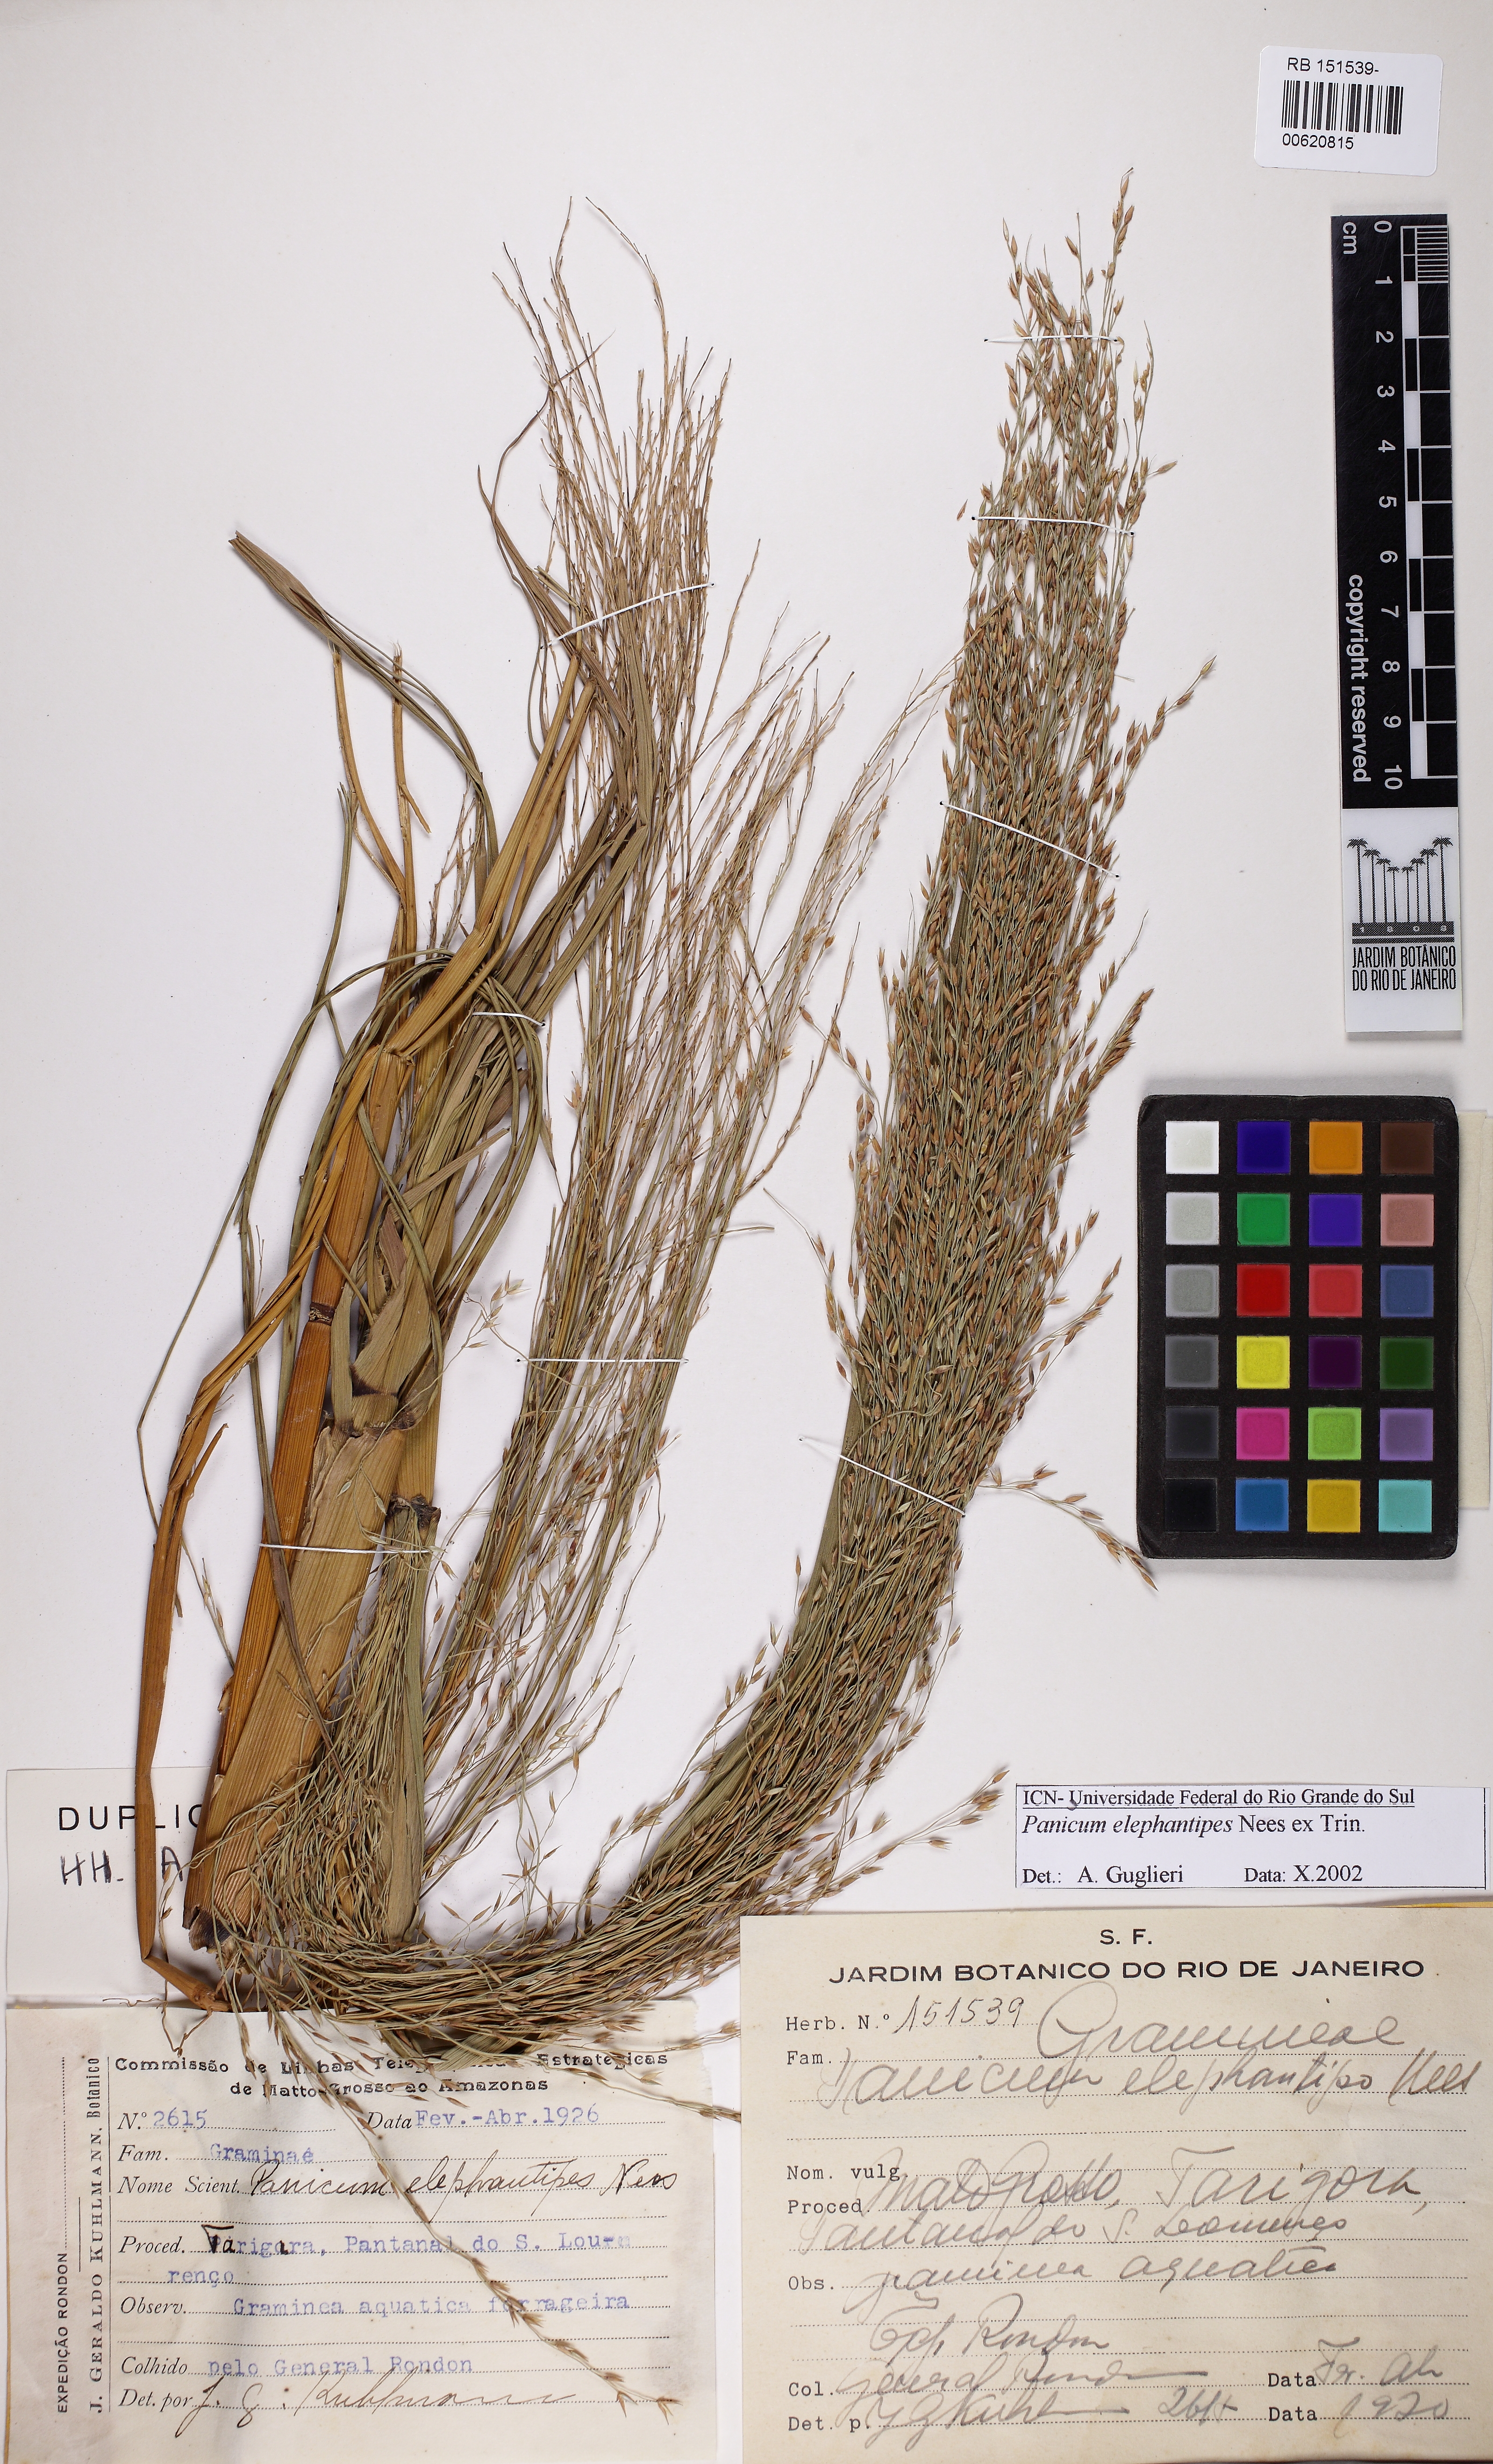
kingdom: Plantae
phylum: Tracheophyta
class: Liliopsida
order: Poales
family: Poaceae
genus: Louisiella
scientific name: Louisiella elephantipes
